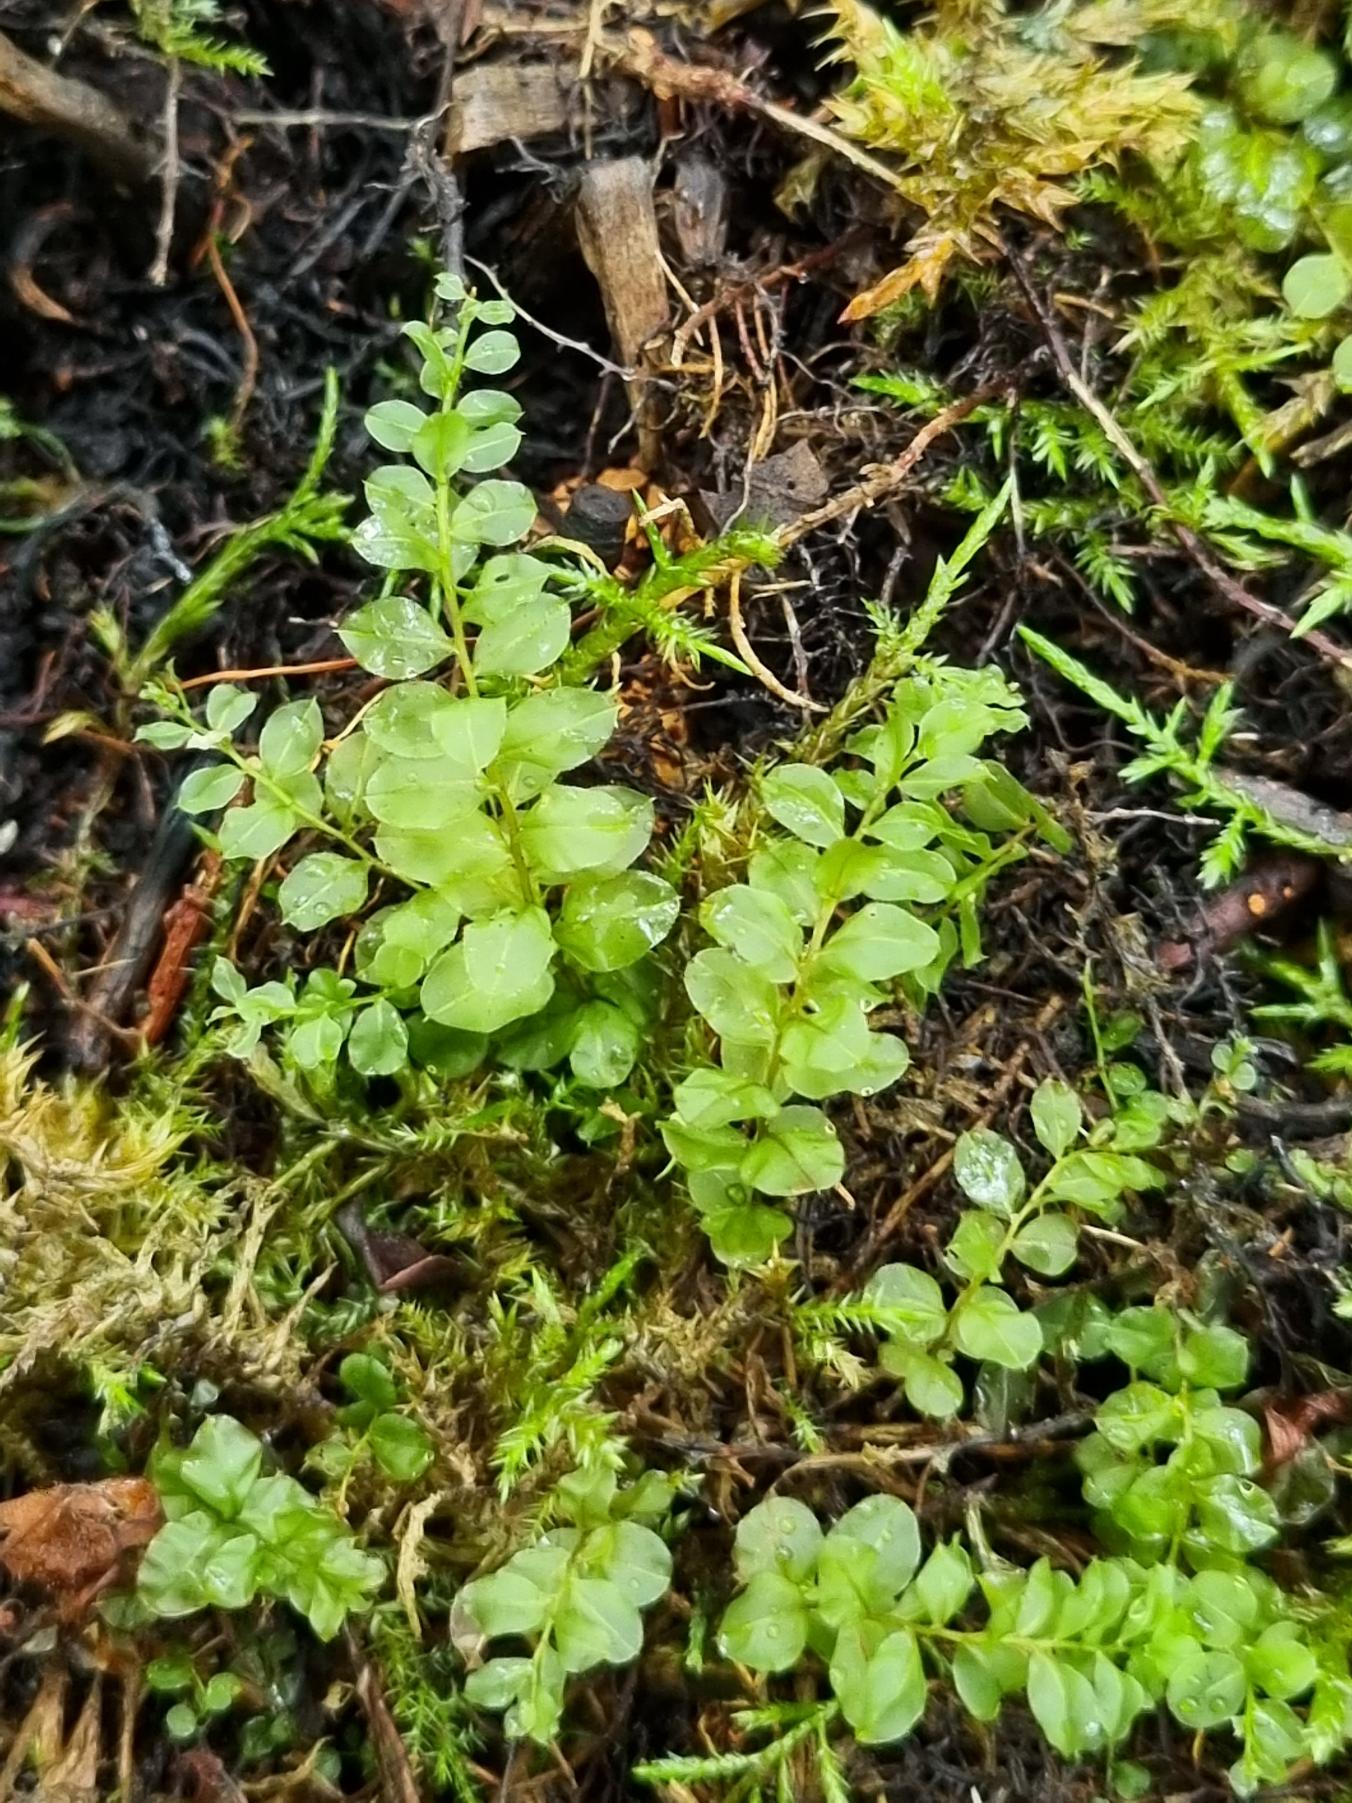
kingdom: Plantae
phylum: Bryophyta
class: Bryopsida
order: Bryales
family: Mniaceae
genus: Plagiomnium
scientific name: Plagiomnium
